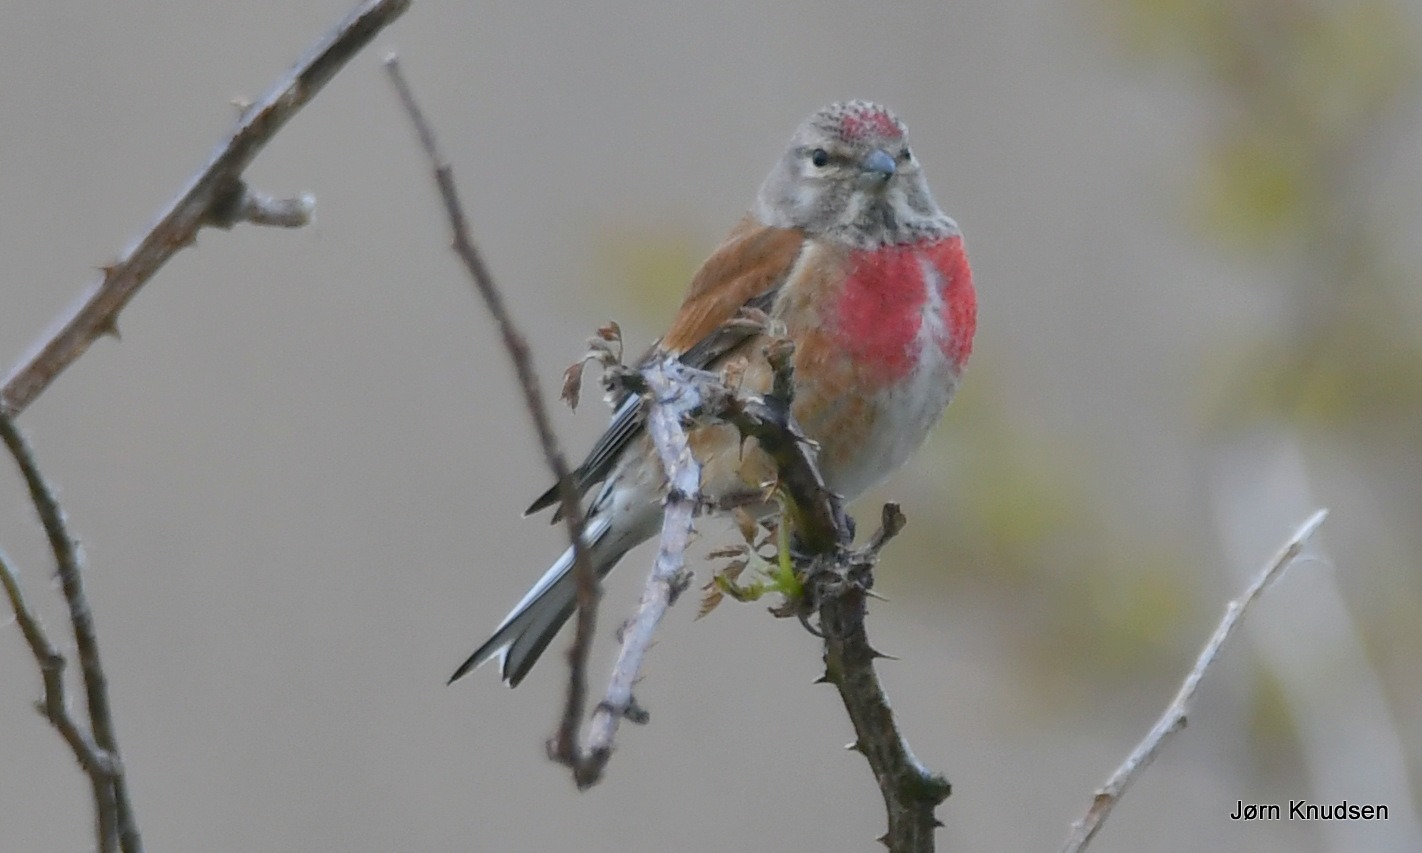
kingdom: Animalia
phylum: Chordata
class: Aves
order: Passeriformes
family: Fringillidae
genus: Linaria
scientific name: Linaria cannabina
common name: Tornirisk
